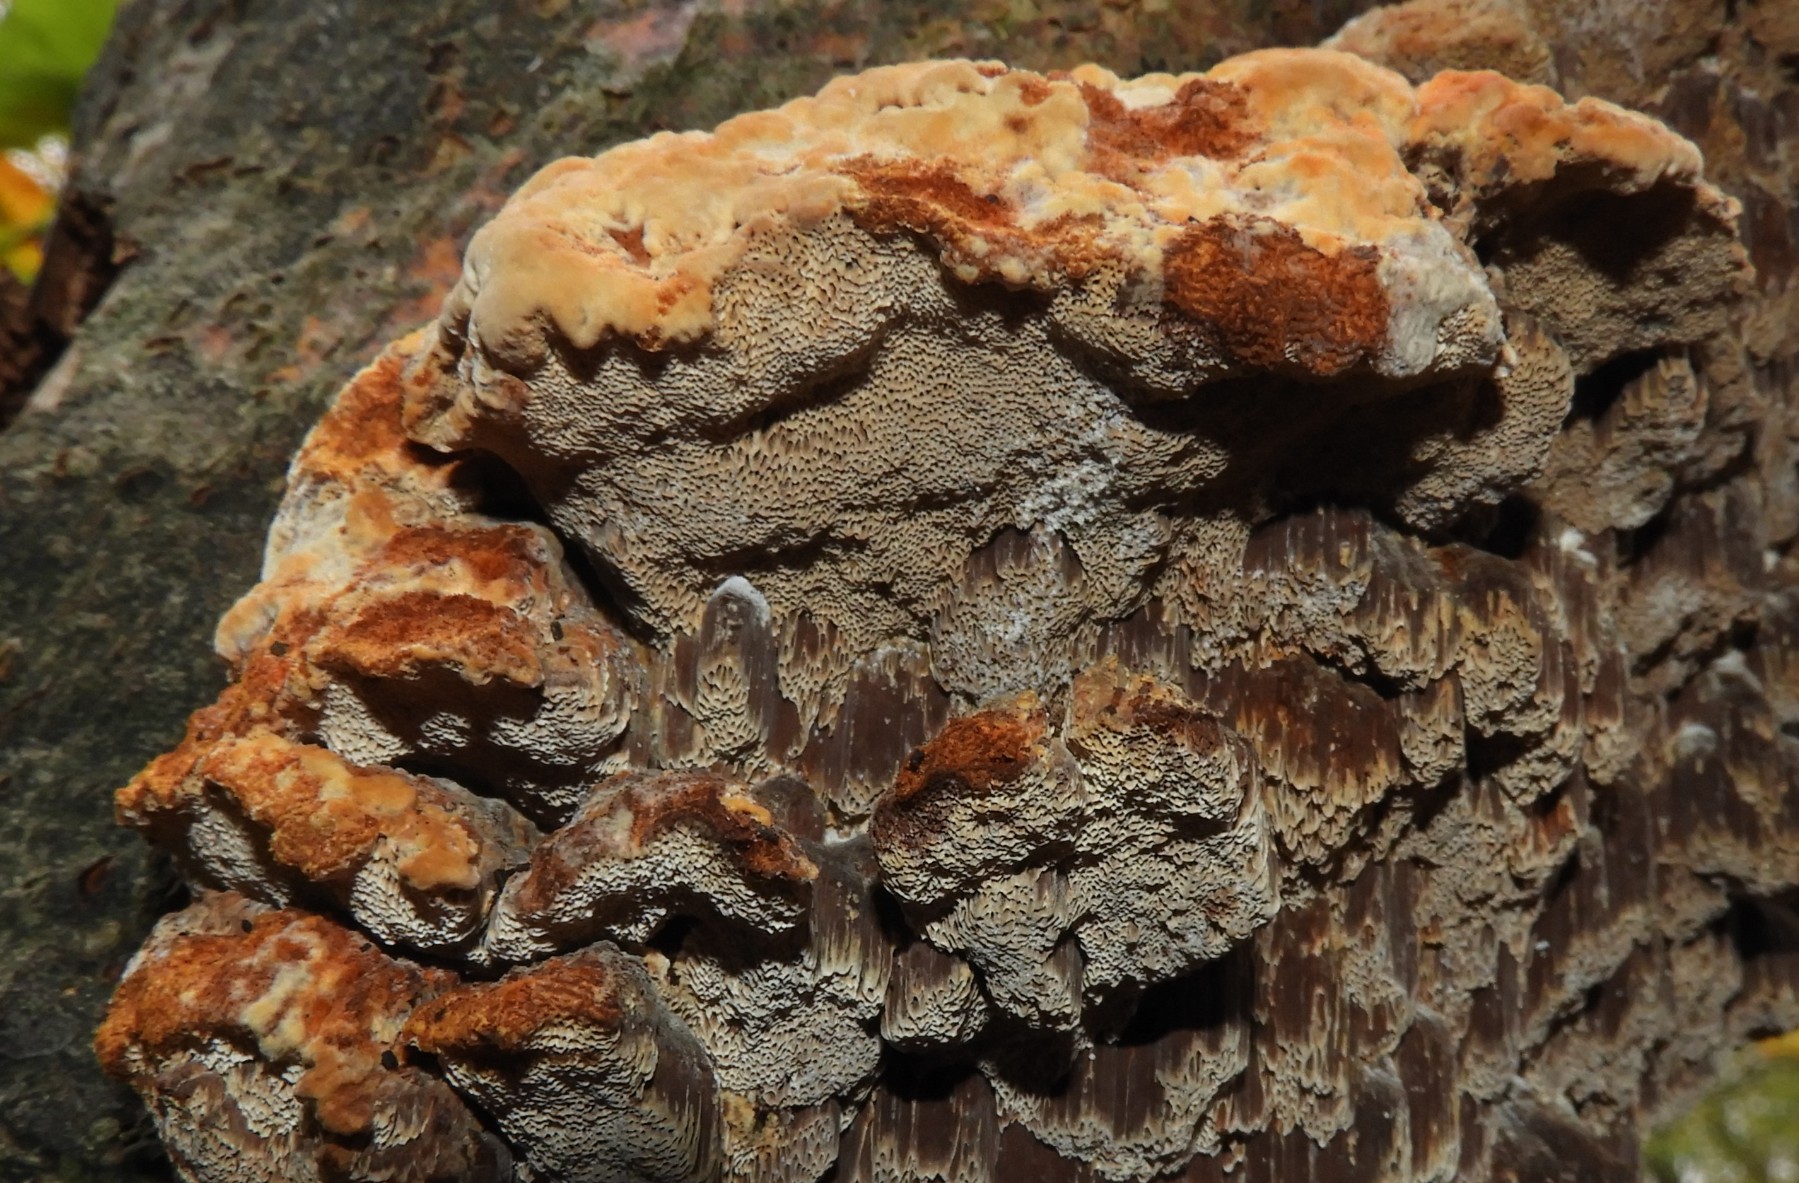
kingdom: Fungi
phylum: Basidiomycota
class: Agaricomycetes
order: Hymenochaetales
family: Hymenochaetaceae
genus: Mensularia
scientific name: Mensularia nodulosa
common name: bøge-spejlporesvamp
